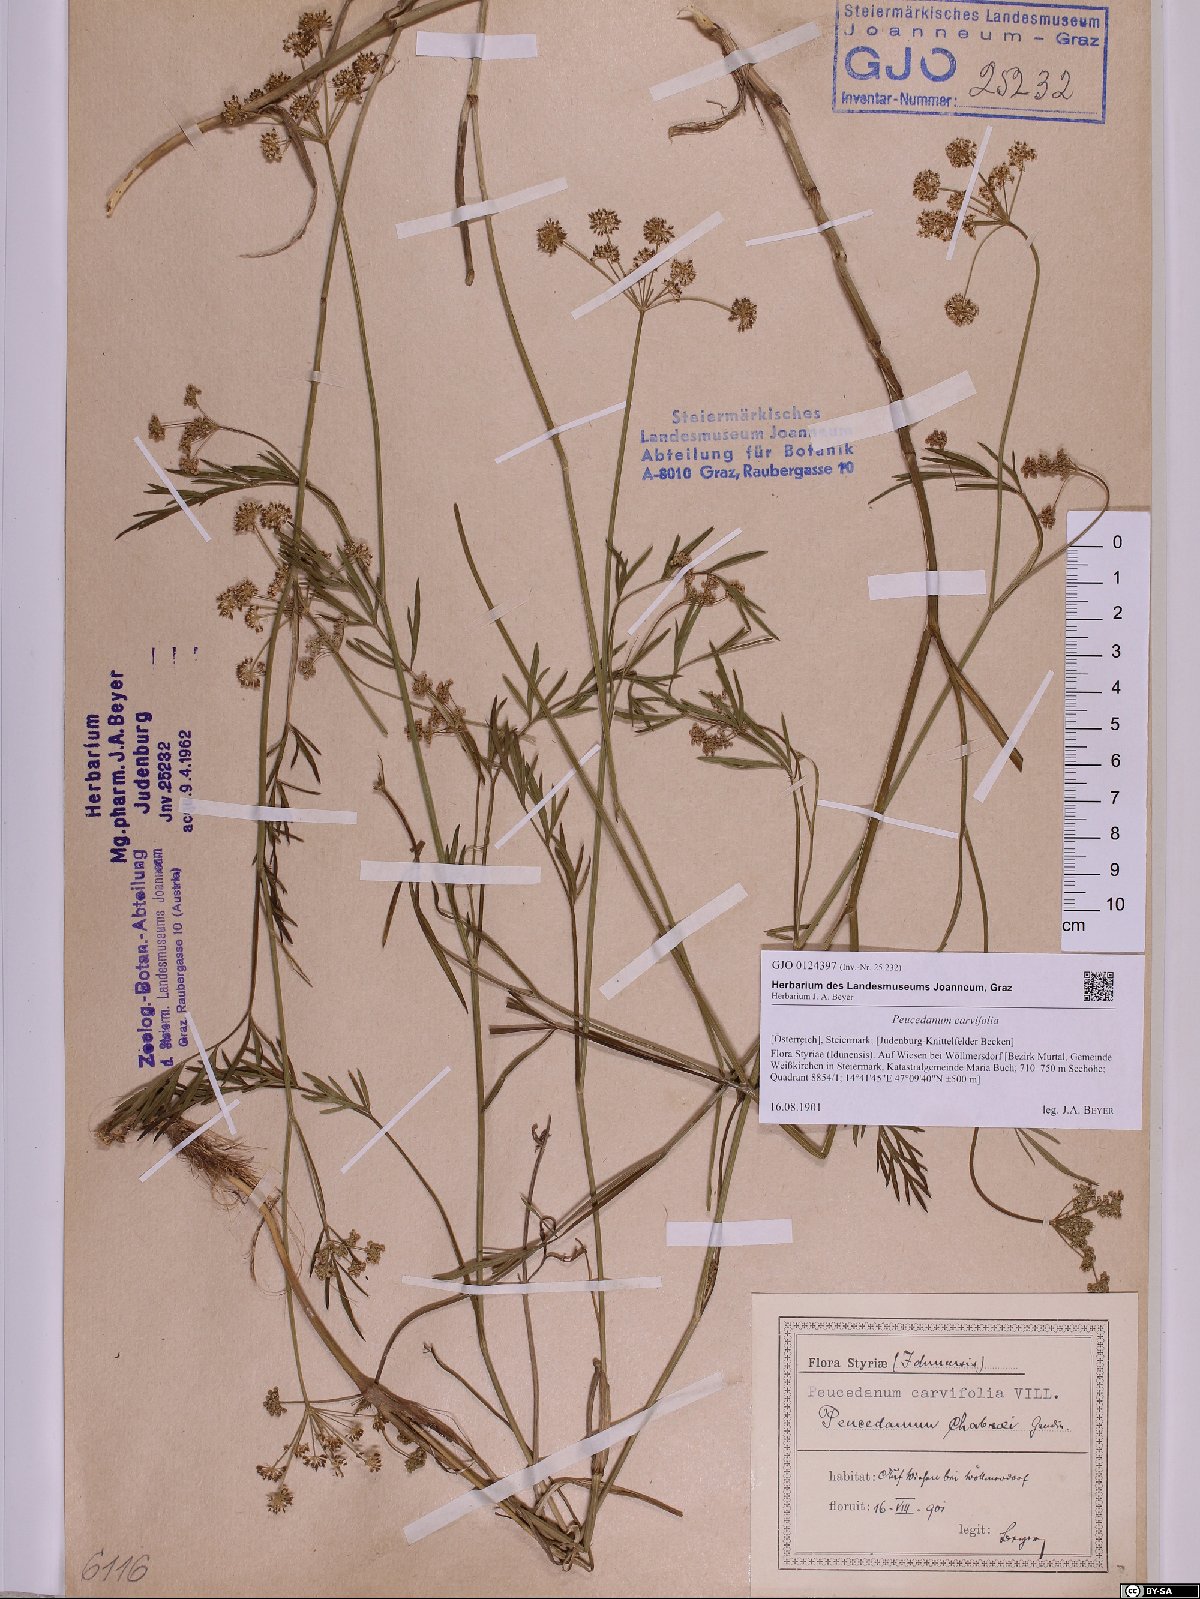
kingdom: Plantae
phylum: Tracheophyta
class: Magnoliopsida
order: Apiales
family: Apiaceae
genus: Dichoropetalum
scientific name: Dichoropetalum carvifolia
